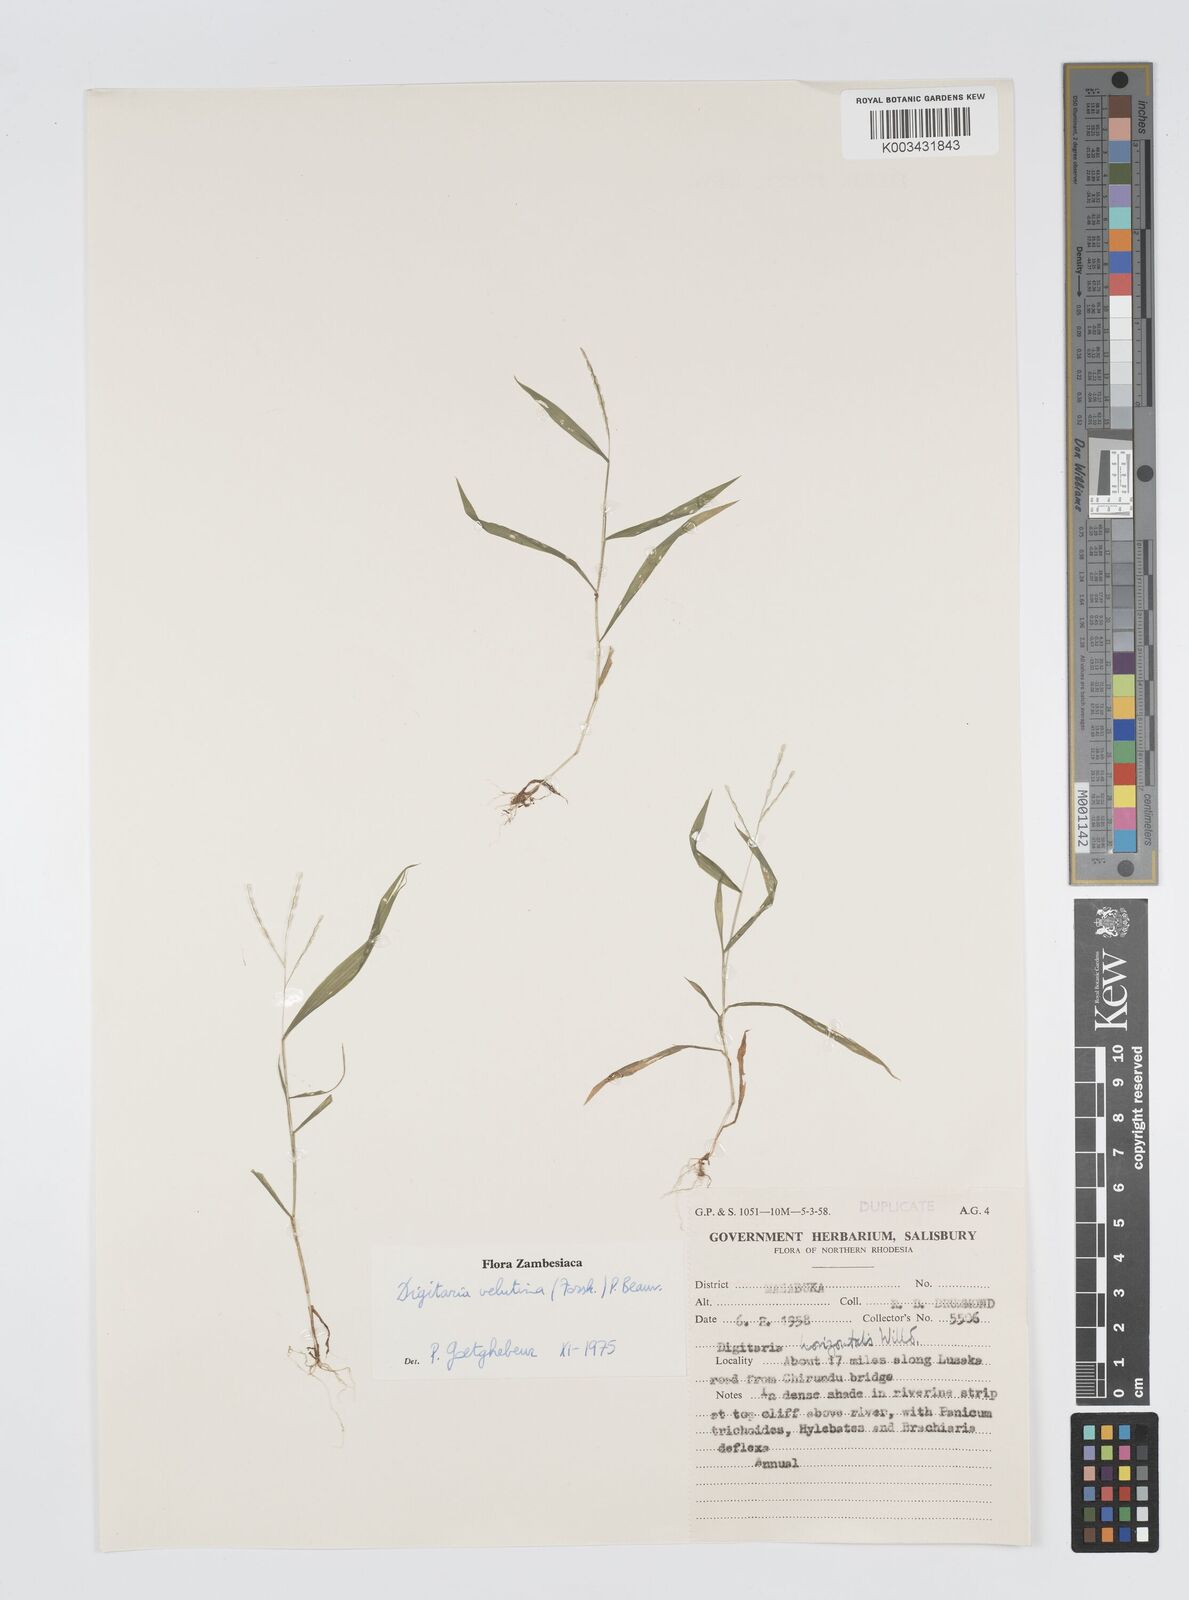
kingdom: Plantae
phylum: Tracheophyta
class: Liliopsida
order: Poales
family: Poaceae
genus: Digitaria
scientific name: Digitaria velutina
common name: Long-plume finger grass
